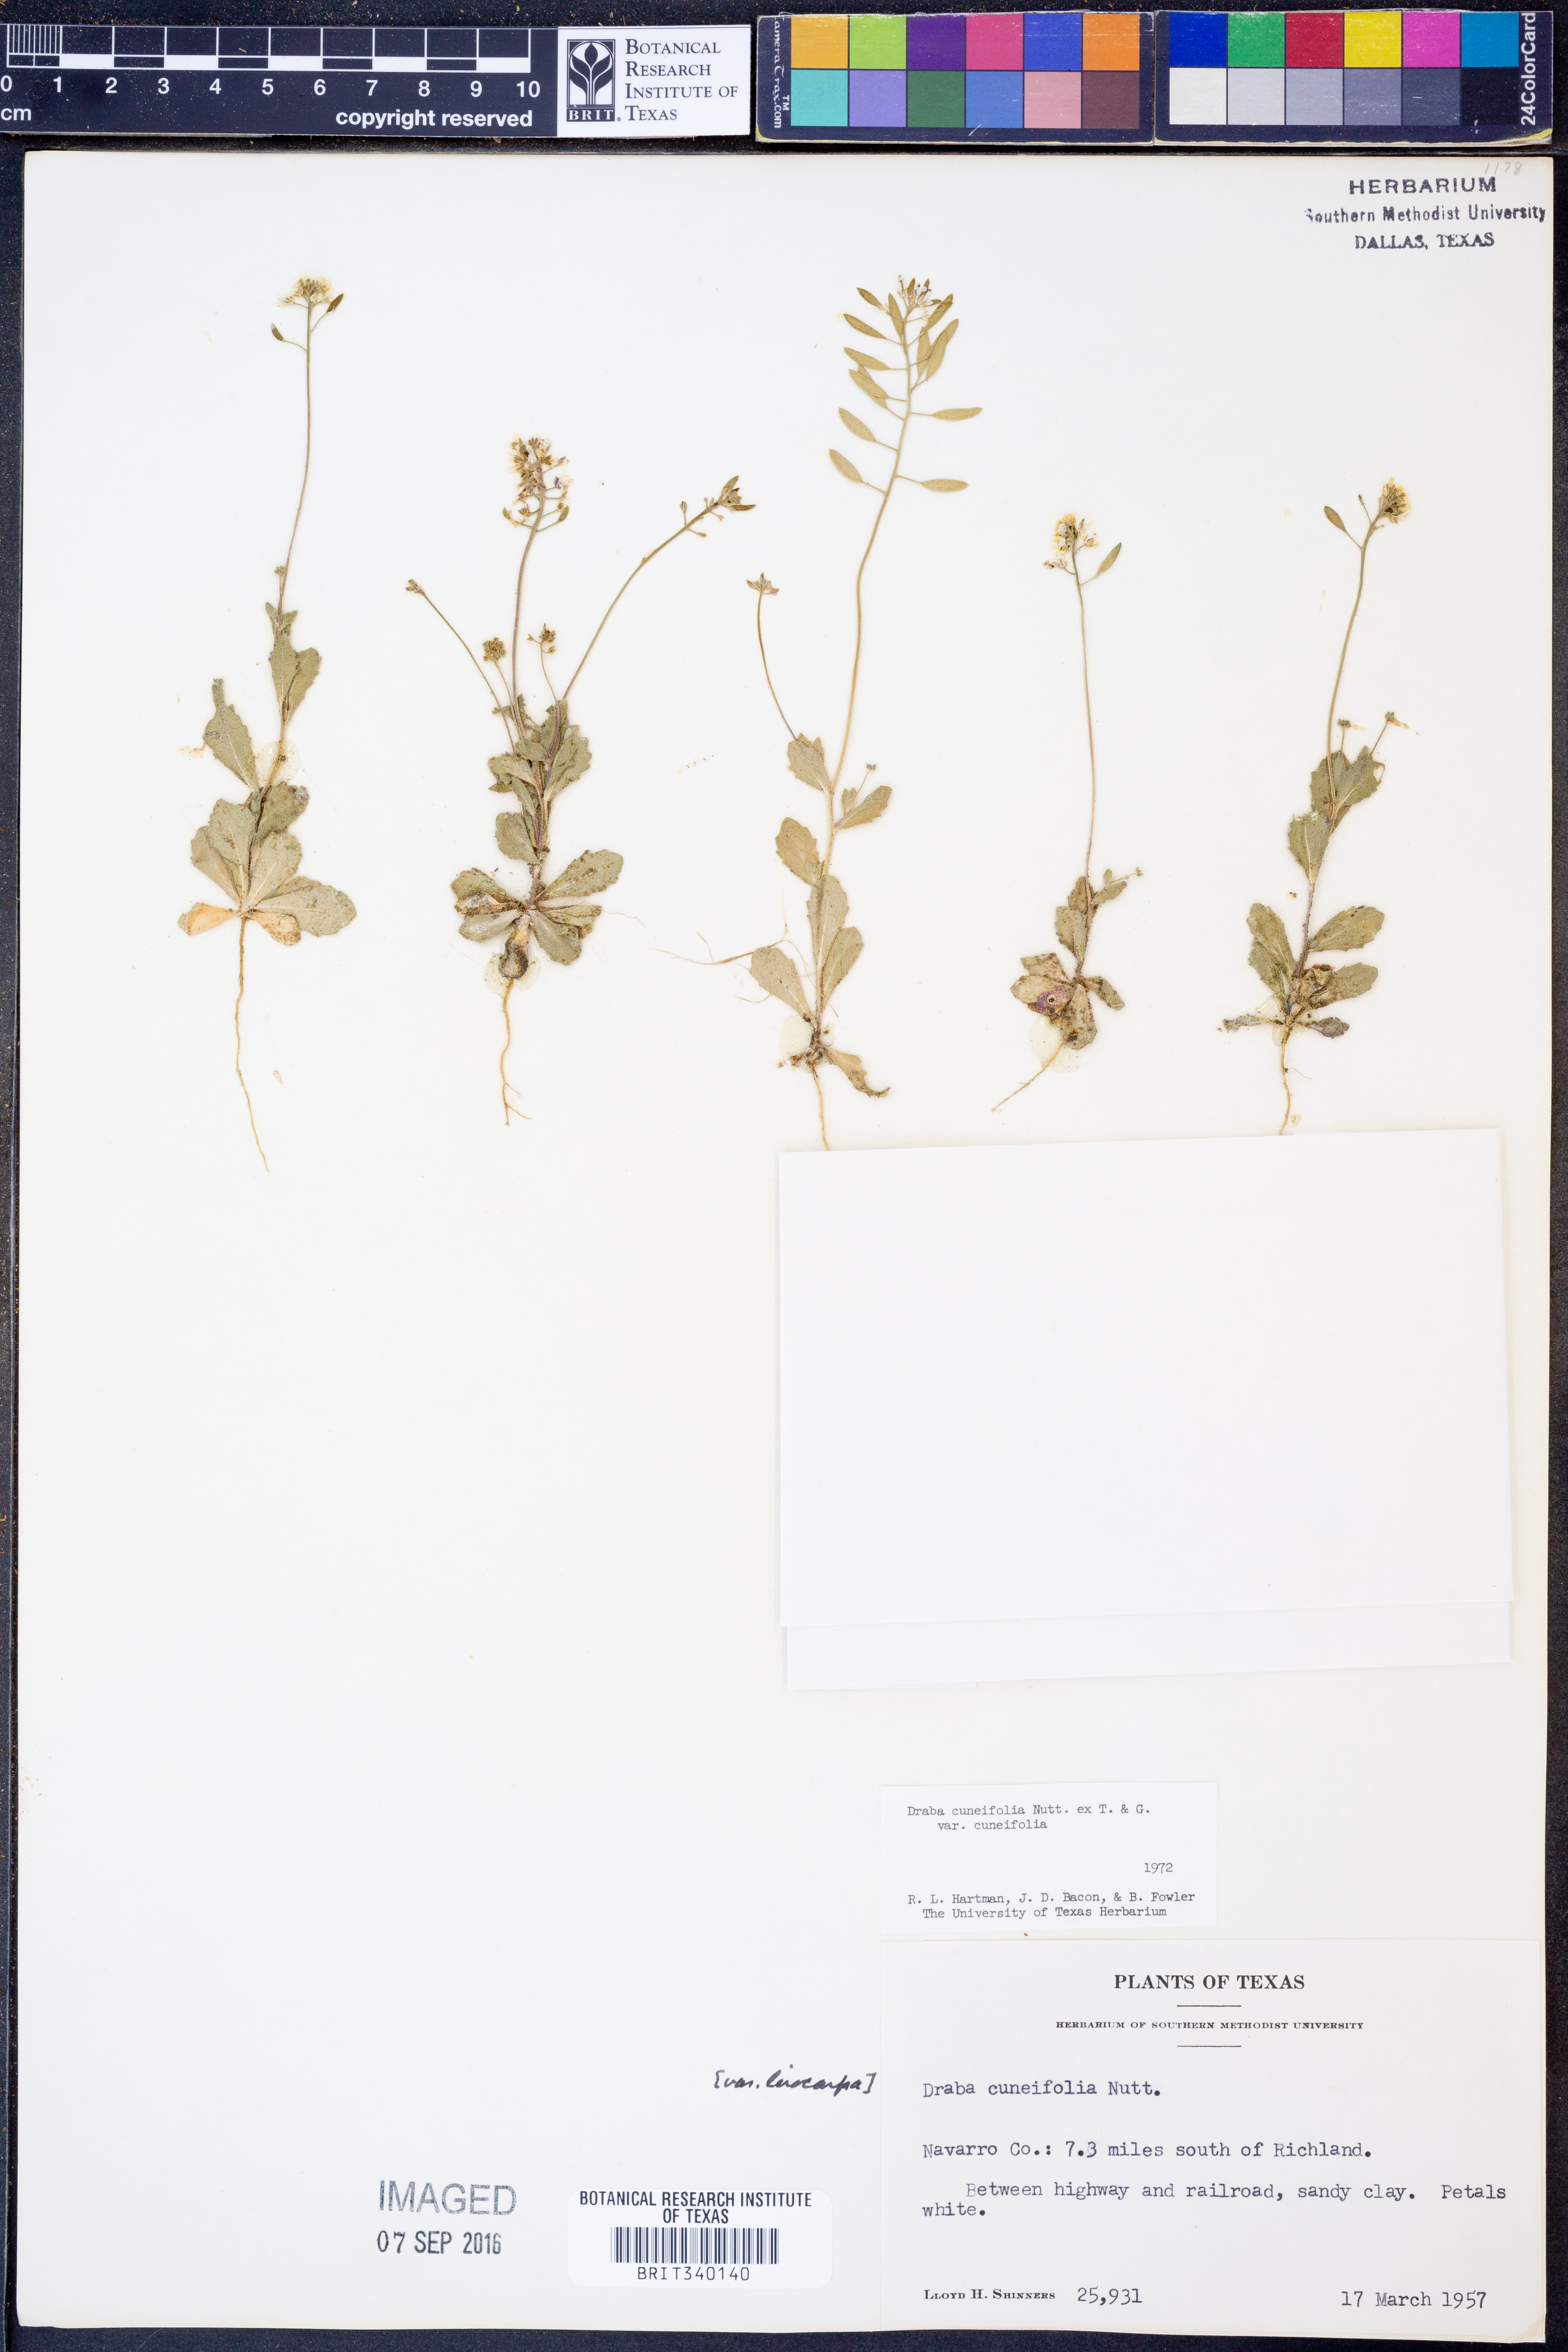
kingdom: Plantae
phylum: Tracheophyta
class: Magnoliopsida
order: Brassicales
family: Brassicaceae
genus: Tomostima
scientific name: Tomostima cuneifolia
